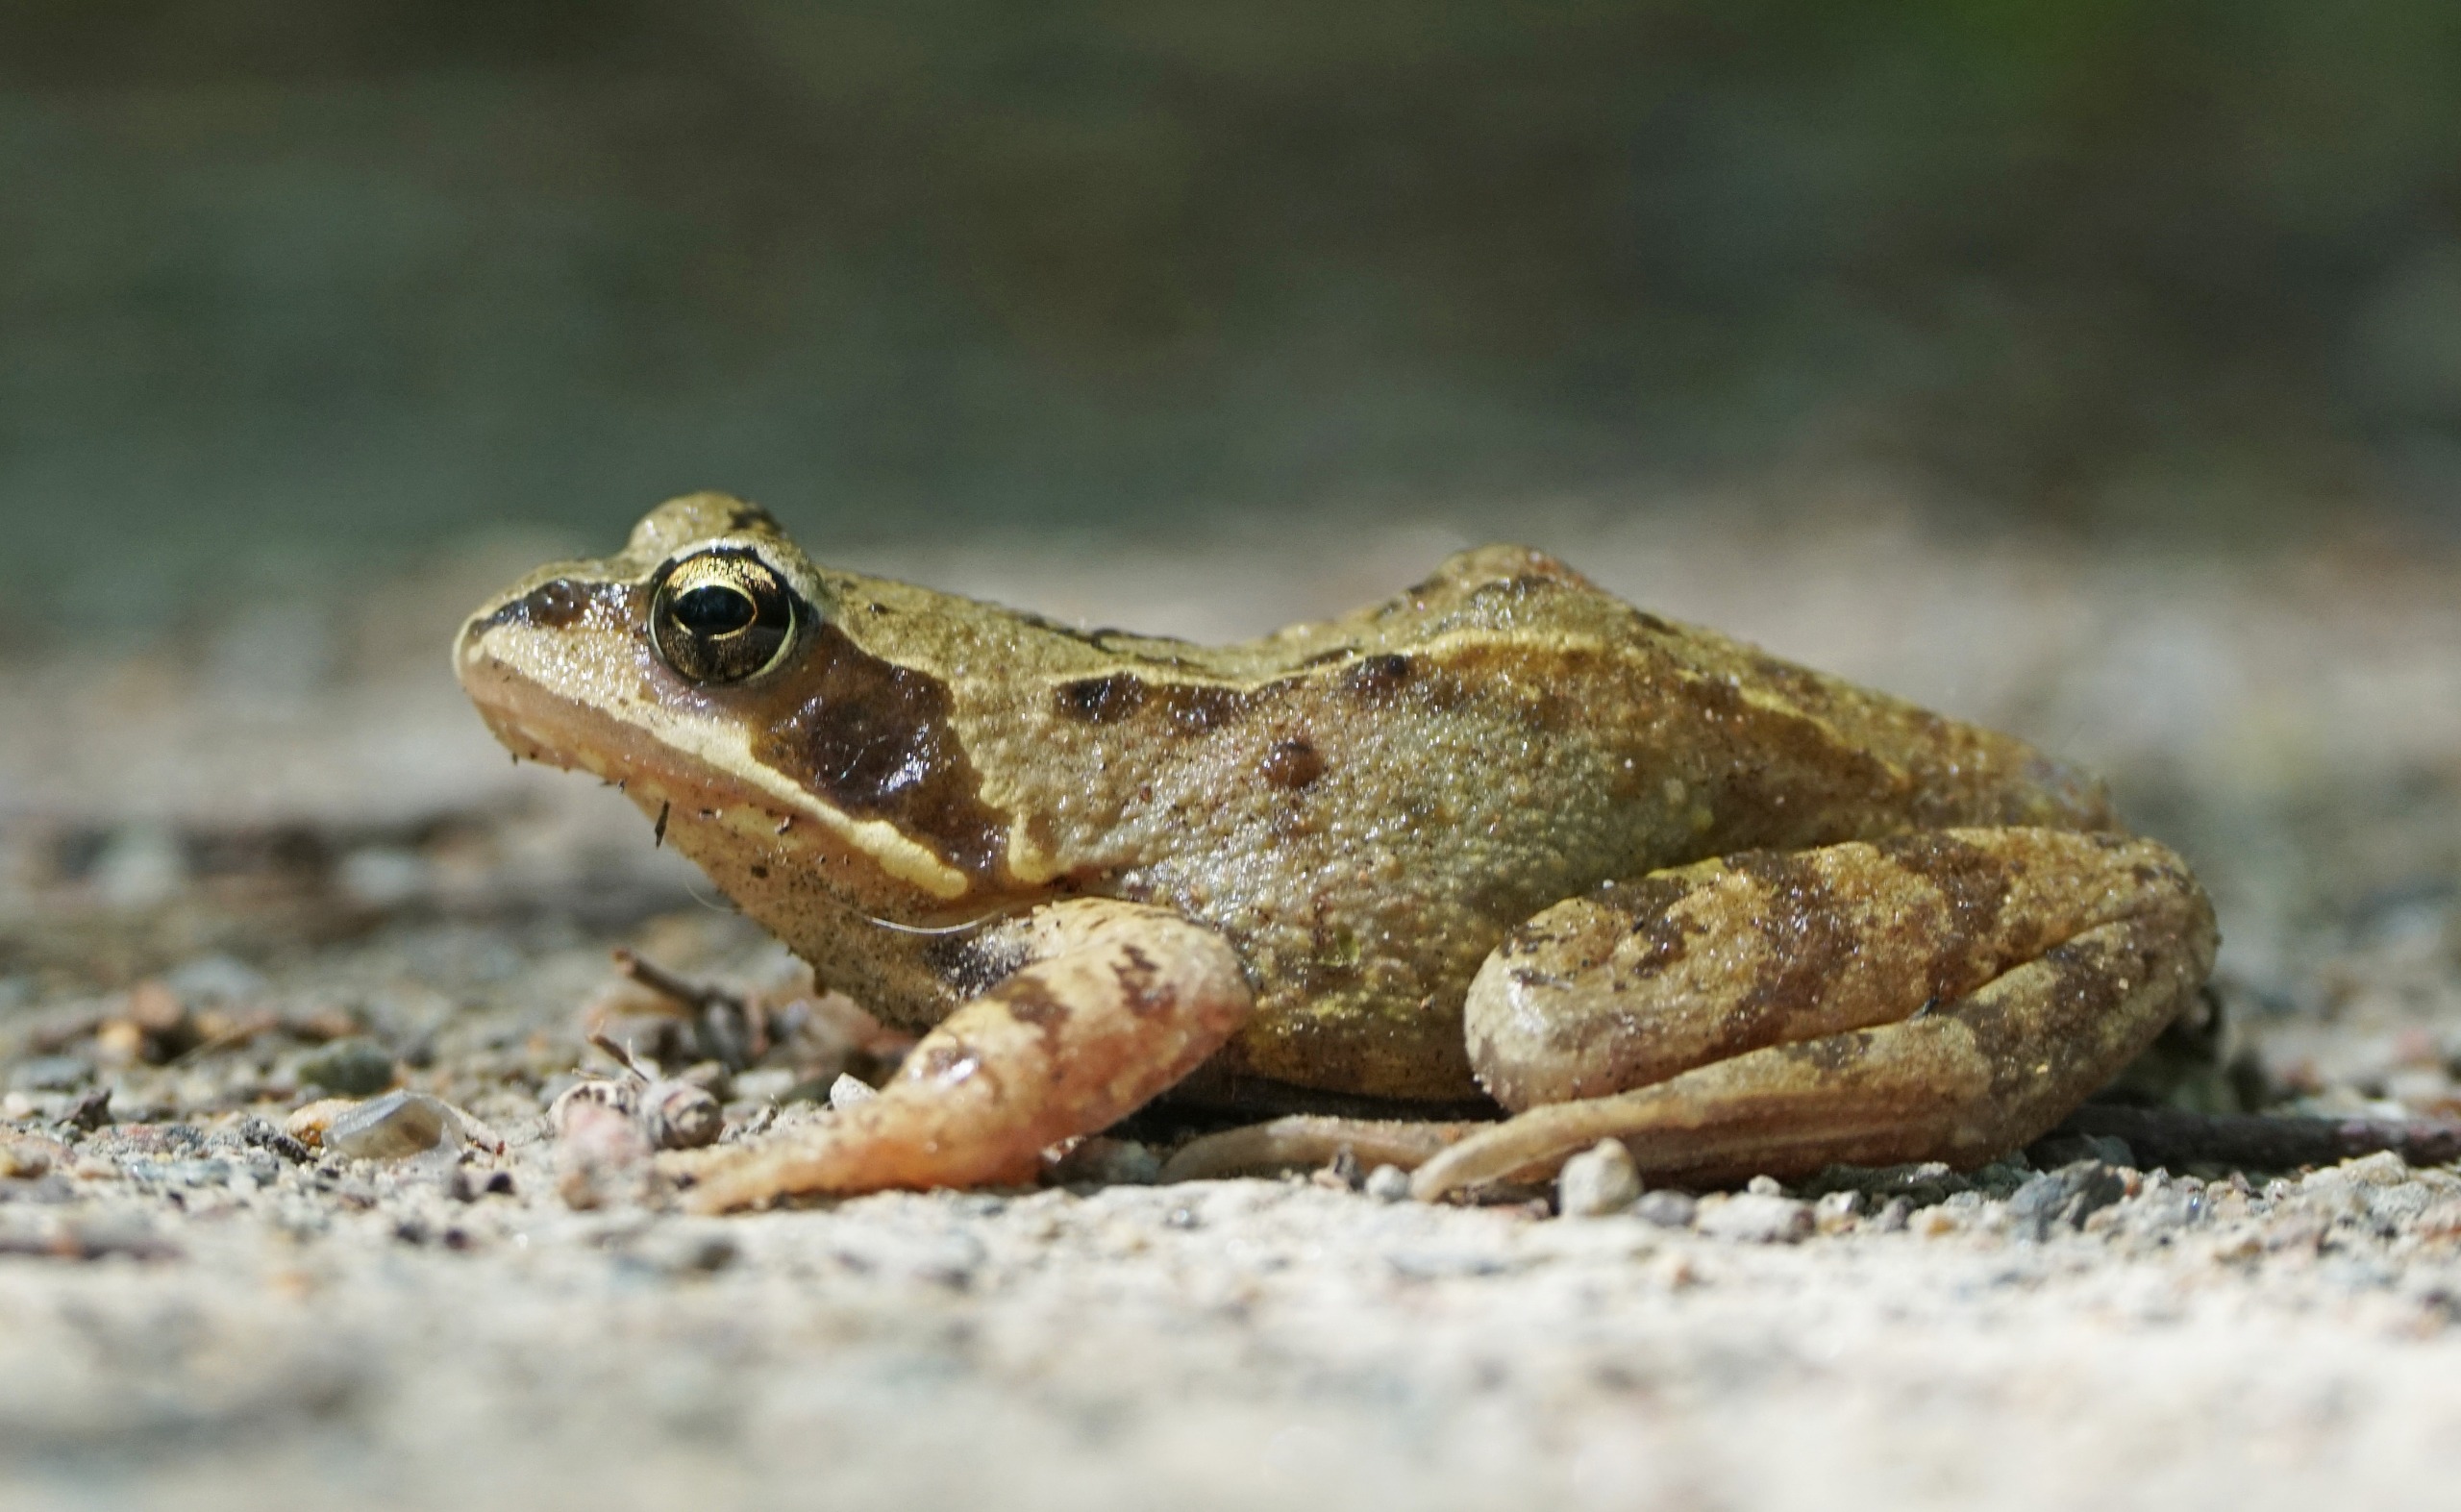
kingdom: Animalia
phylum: Chordata
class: Amphibia
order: Anura
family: Ranidae
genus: Rana
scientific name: Rana temporaria
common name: Butsnudet frø
